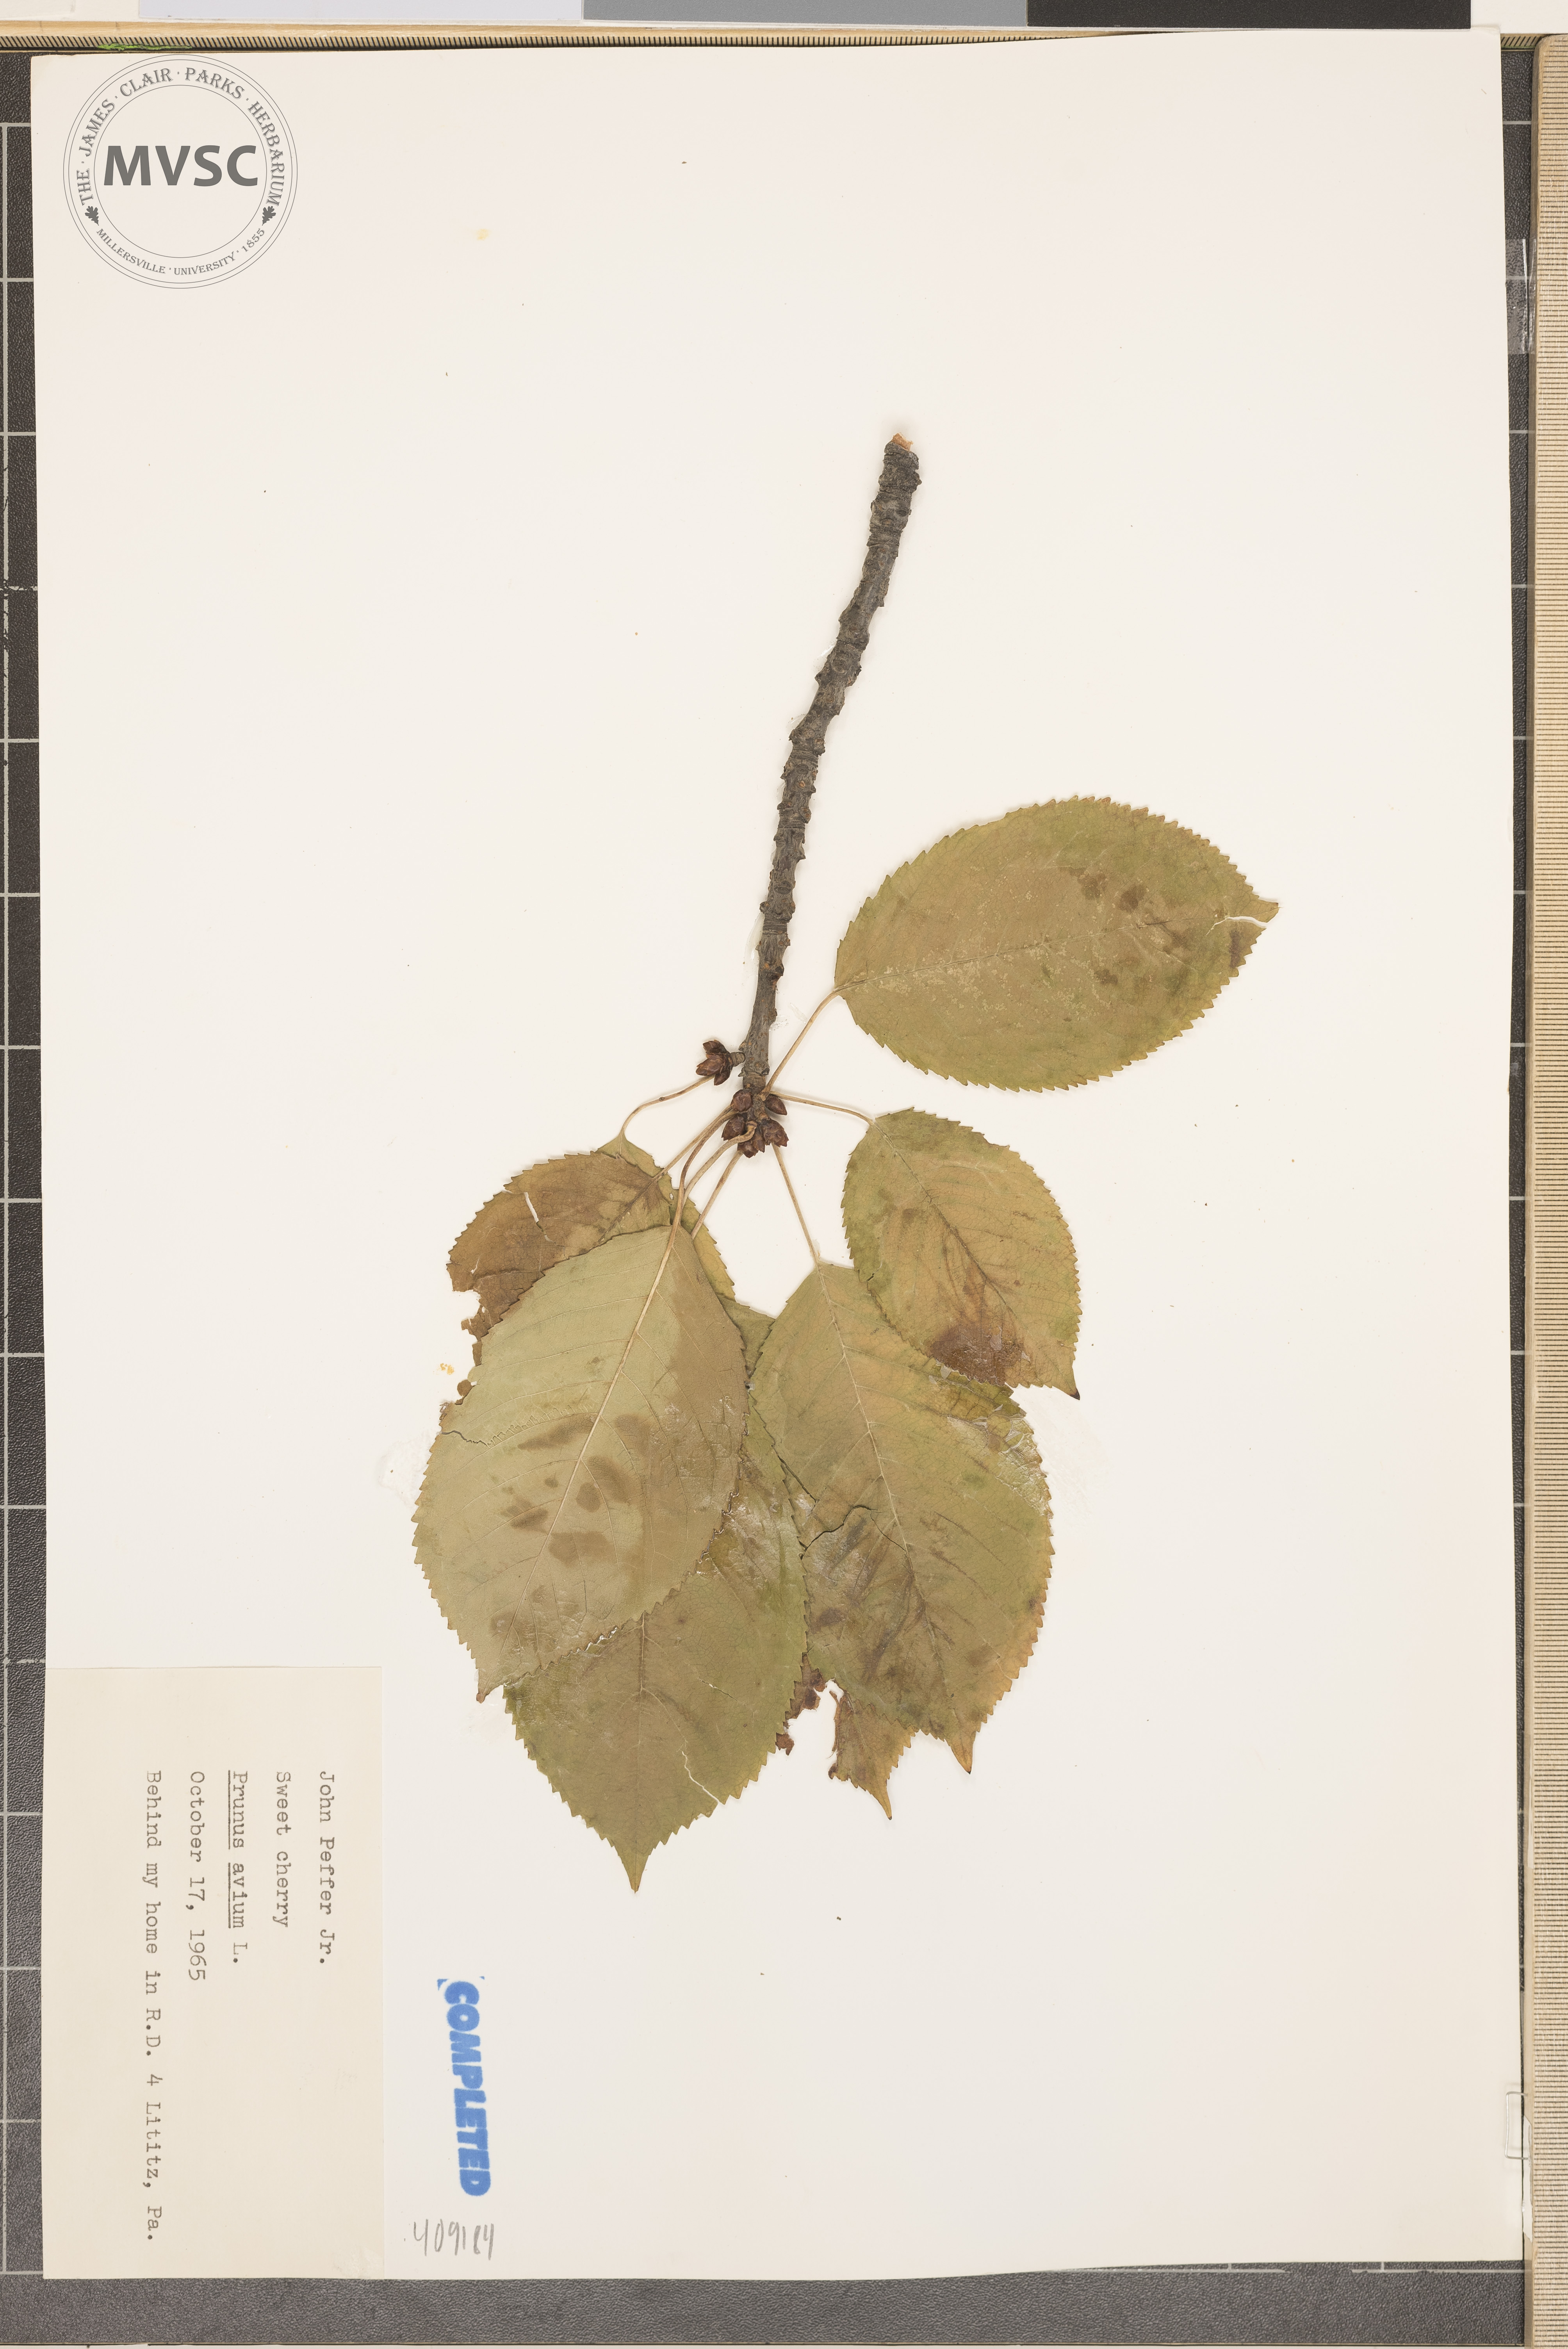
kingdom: Plantae
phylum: Tracheophyta
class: Magnoliopsida
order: Rosales
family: Rosaceae
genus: Prunus
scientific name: Prunus avium
